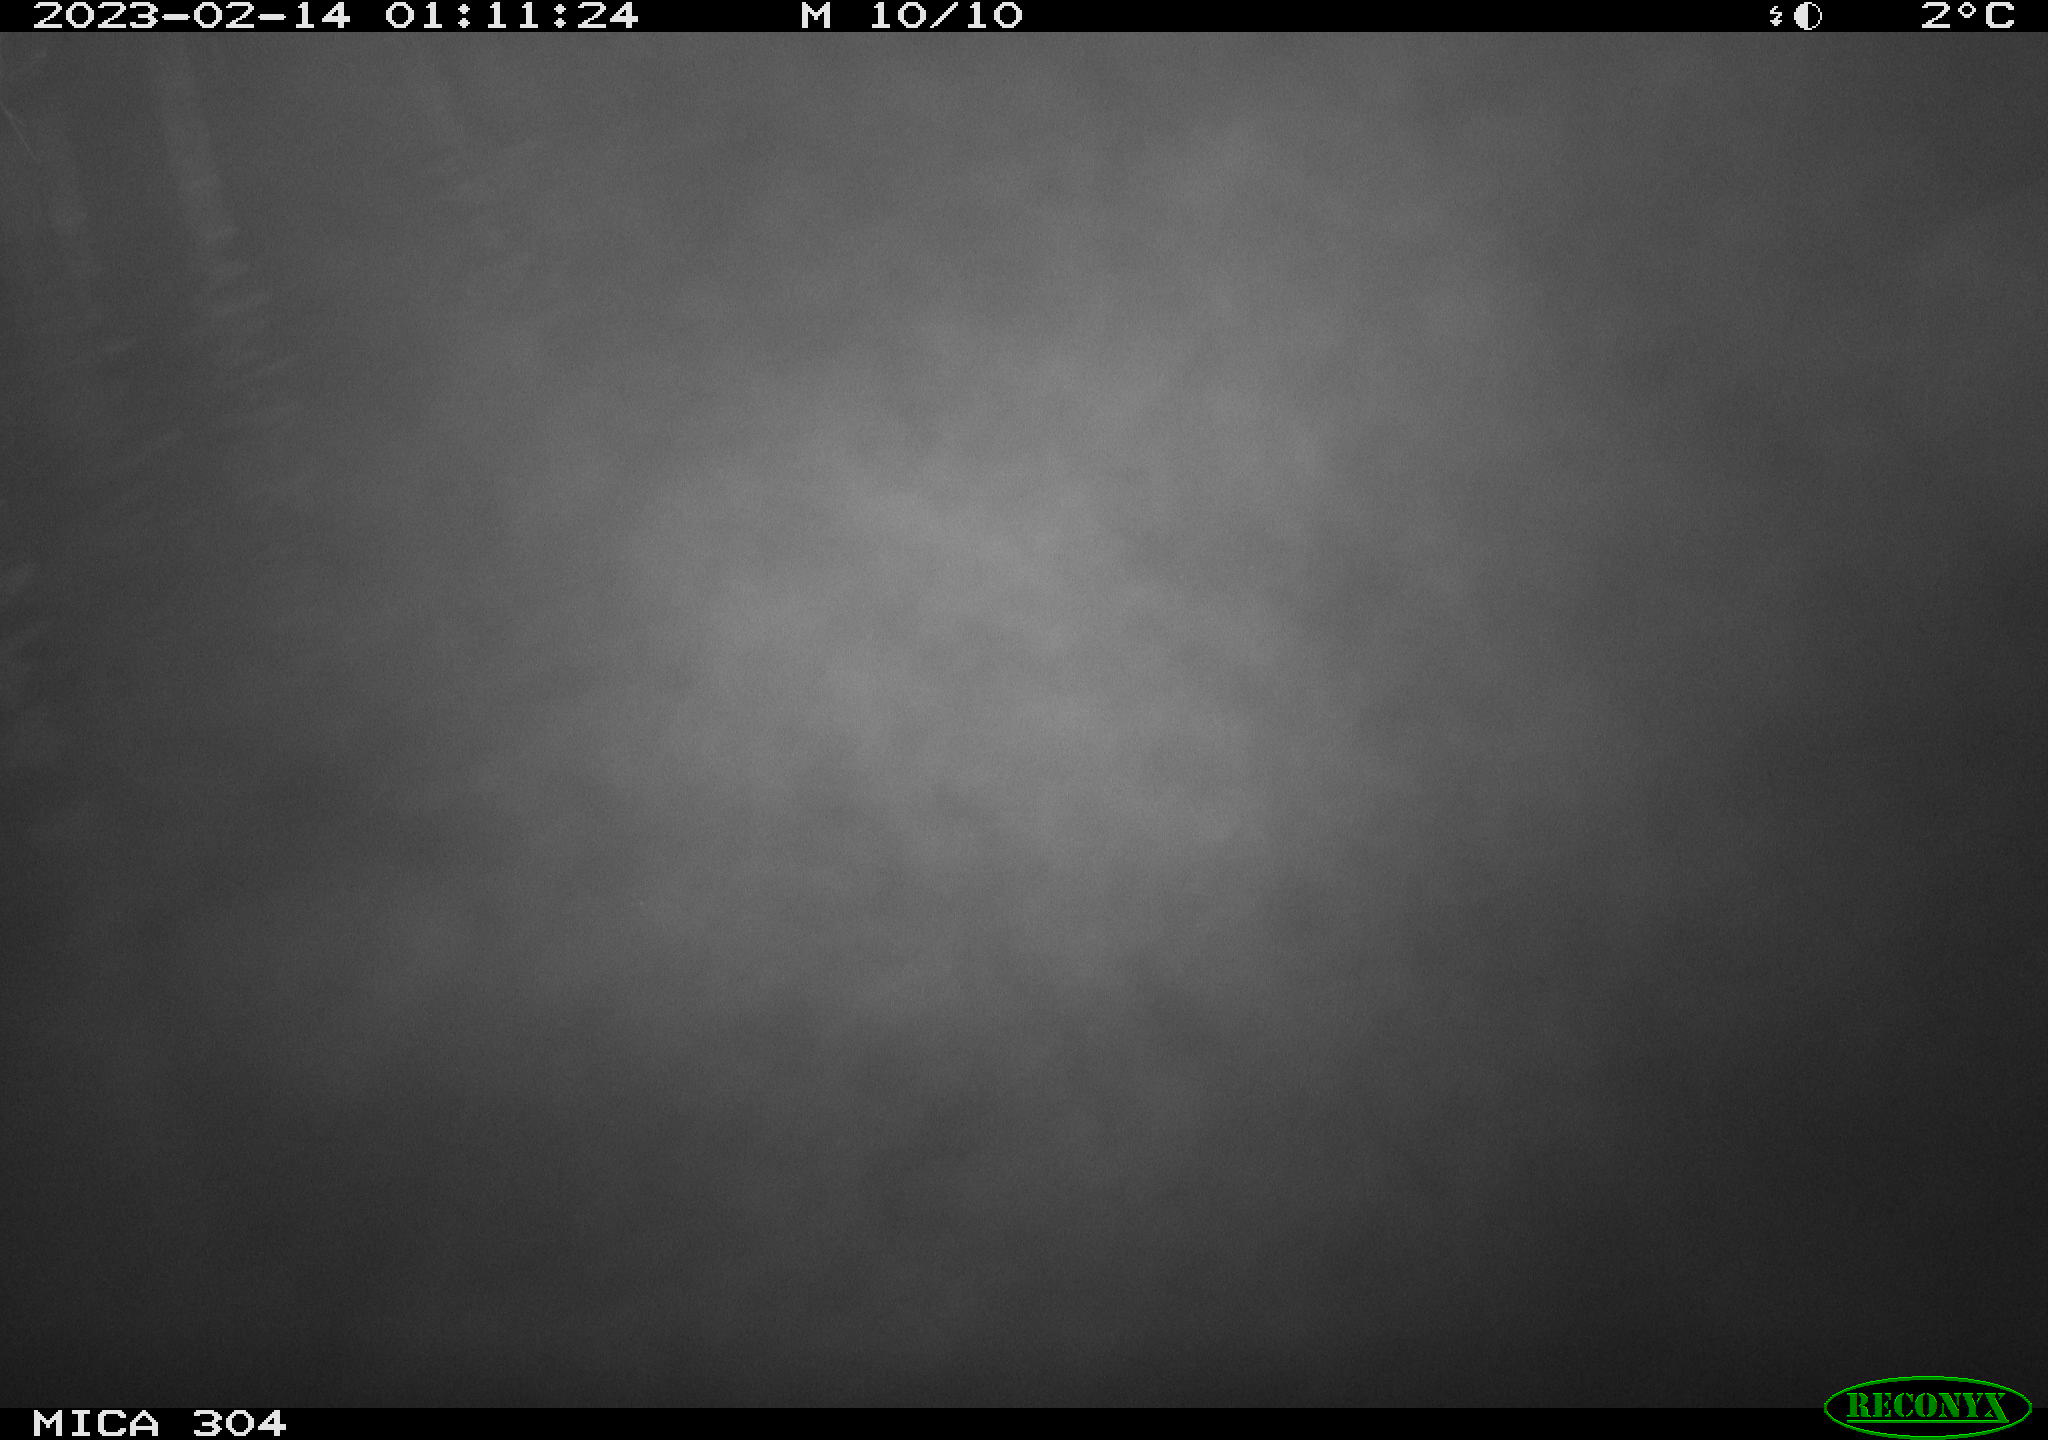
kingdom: Animalia
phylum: Chordata
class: Mammalia
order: Rodentia
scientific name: Rodentia
